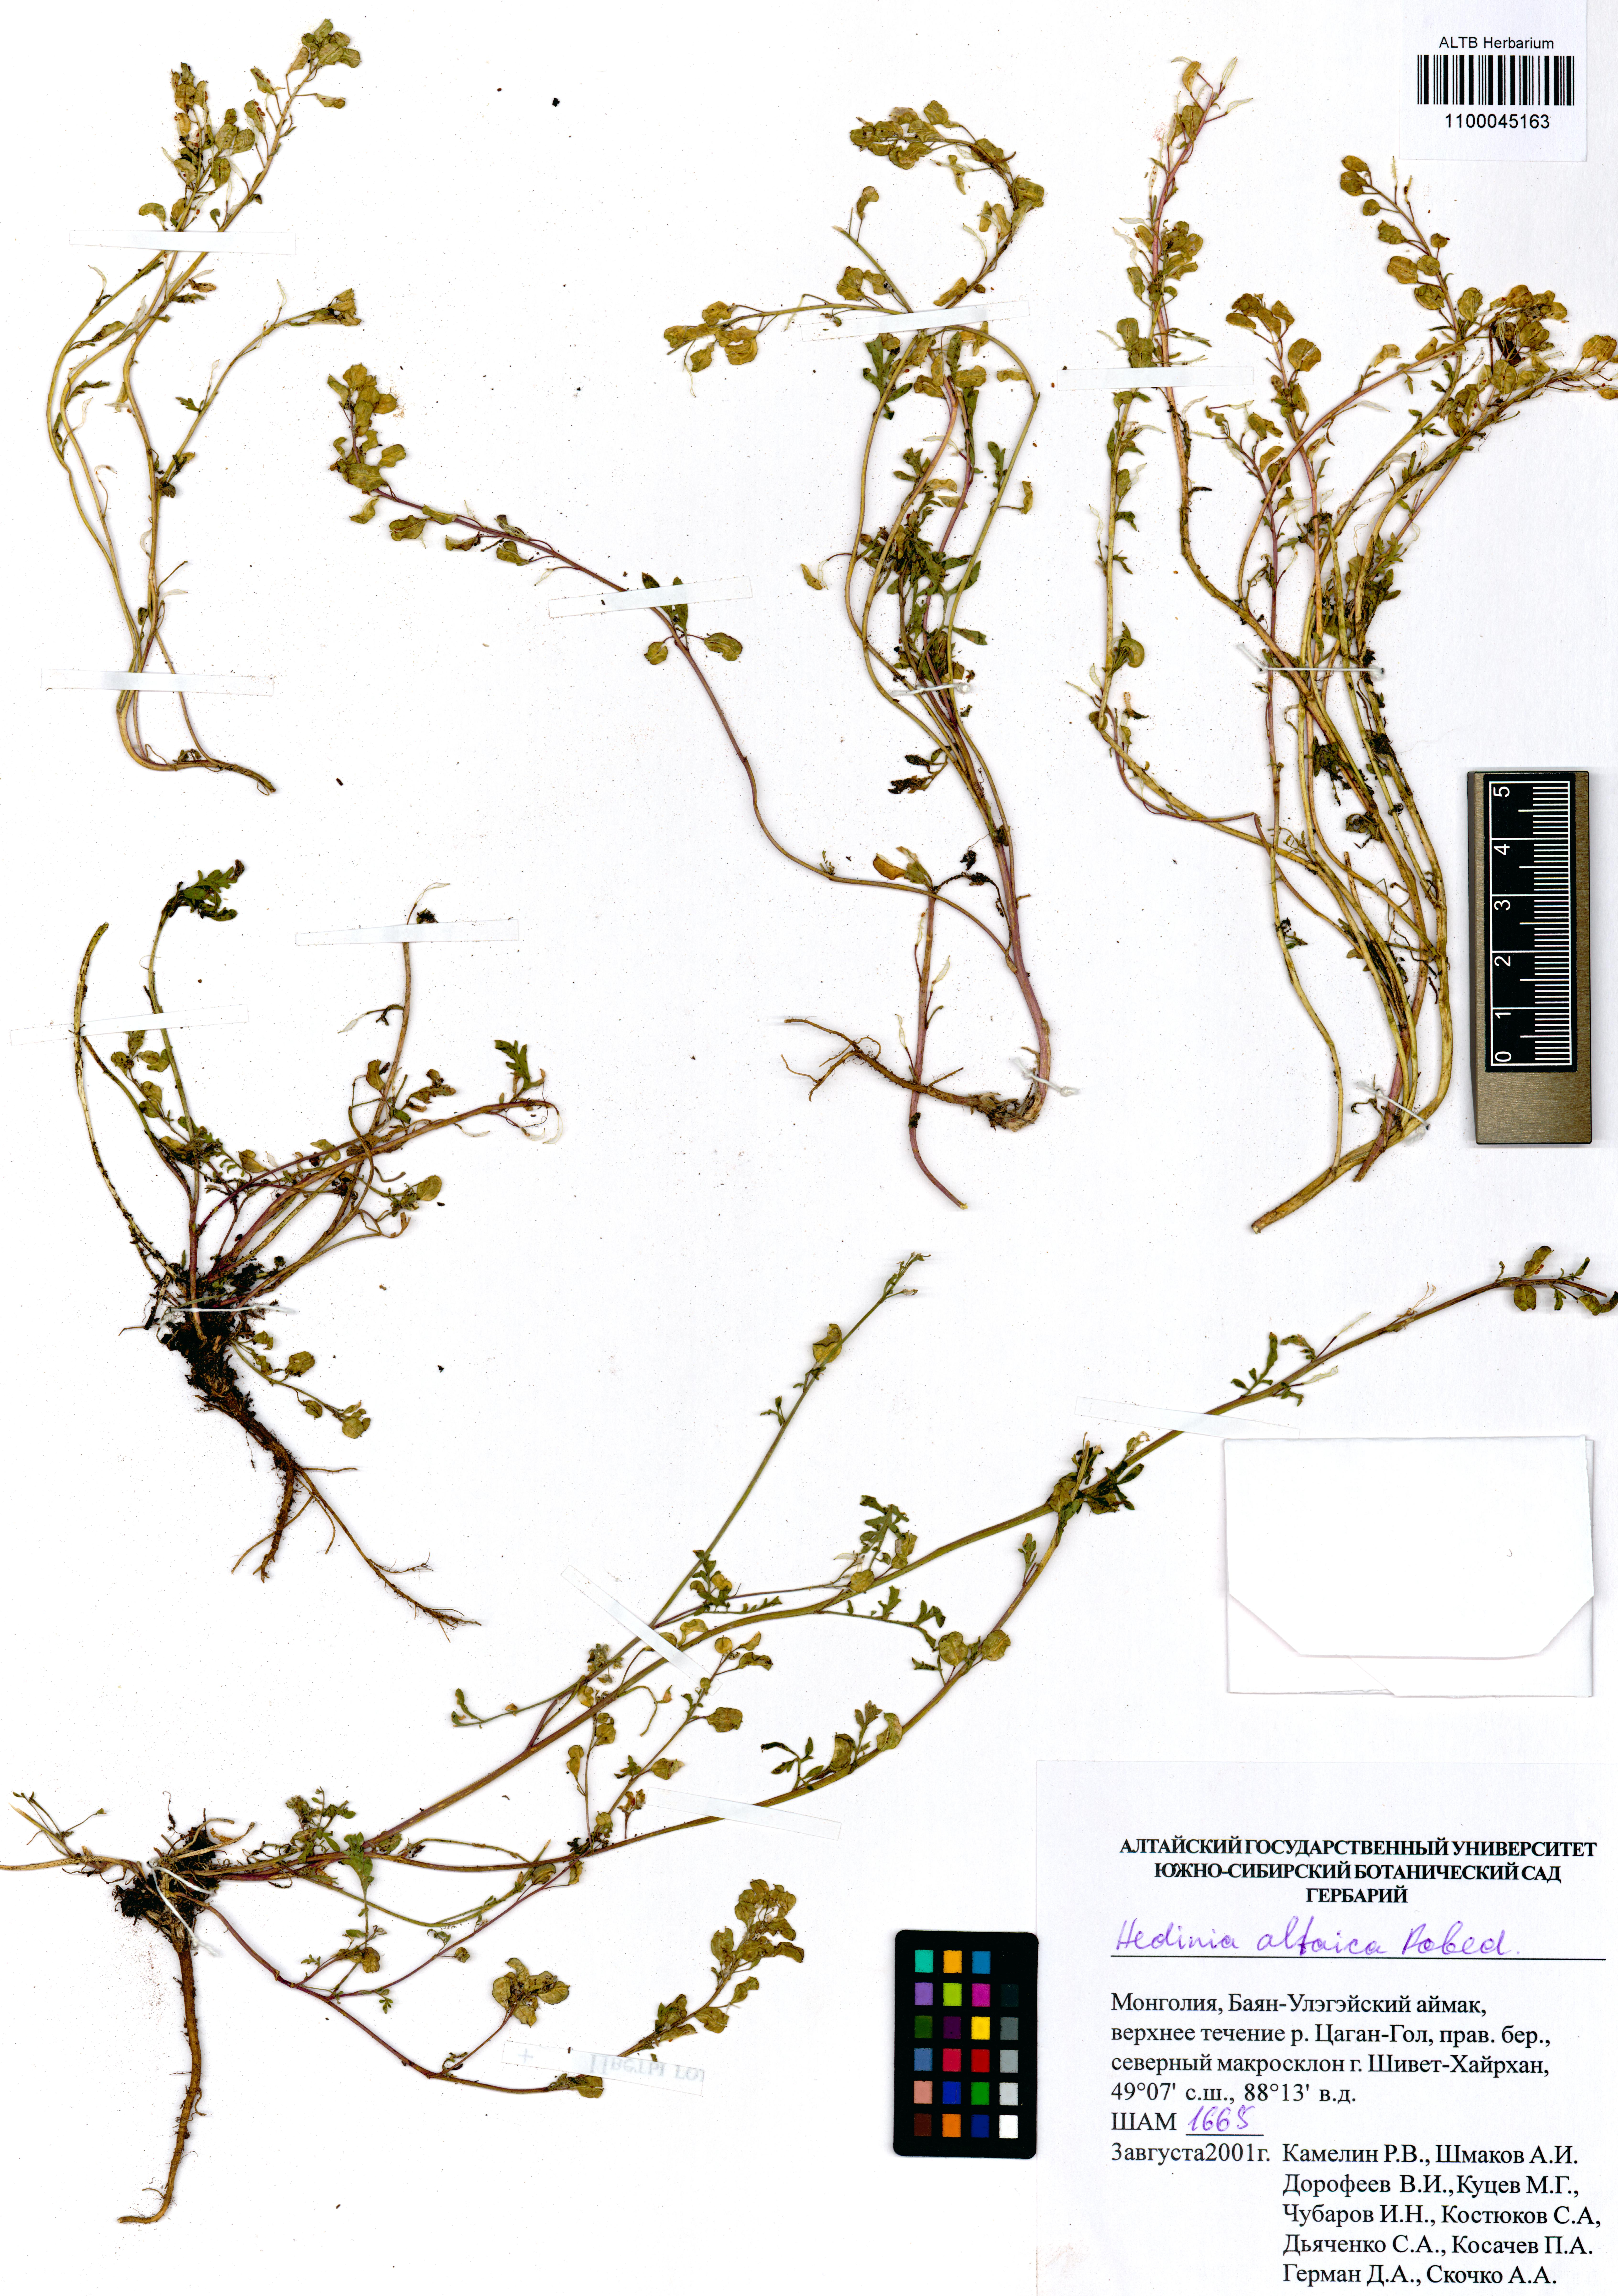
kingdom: Plantae
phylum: Tracheophyta
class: Magnoliopsida
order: Brassicales
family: Brassicaceae
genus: Smelowskia
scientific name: Smelowskia altaica
